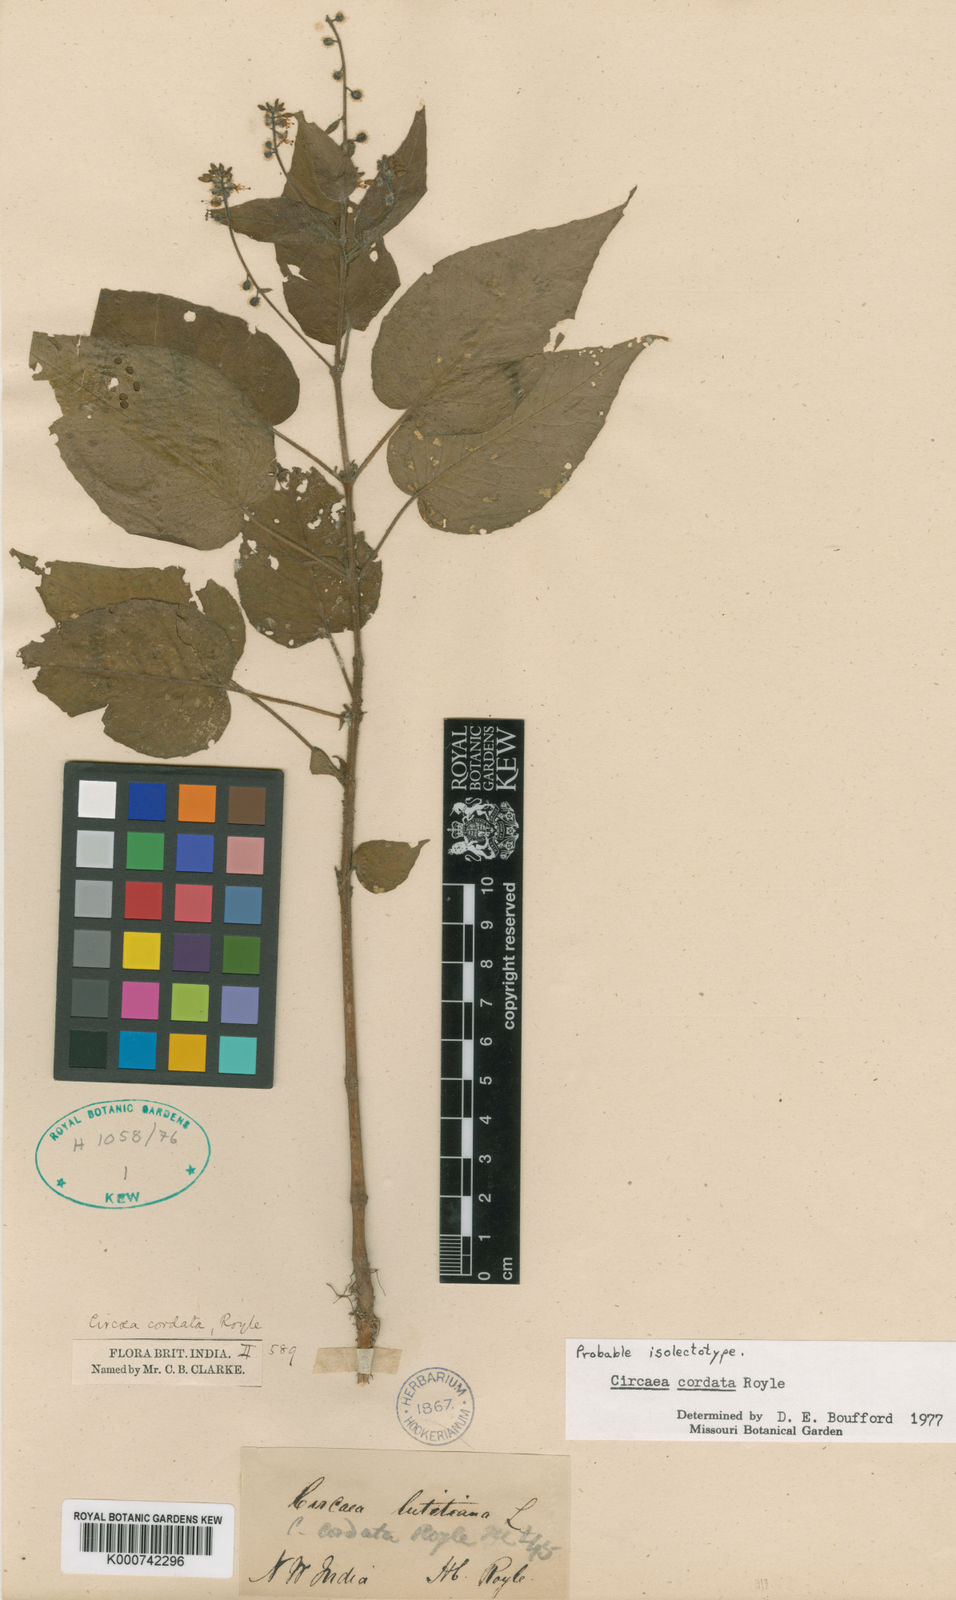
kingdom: Plantae
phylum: Tracheophyta
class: Magnoliopsida
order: Myrtales
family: Onagraceae
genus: Circaea
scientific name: Circaea cordata
